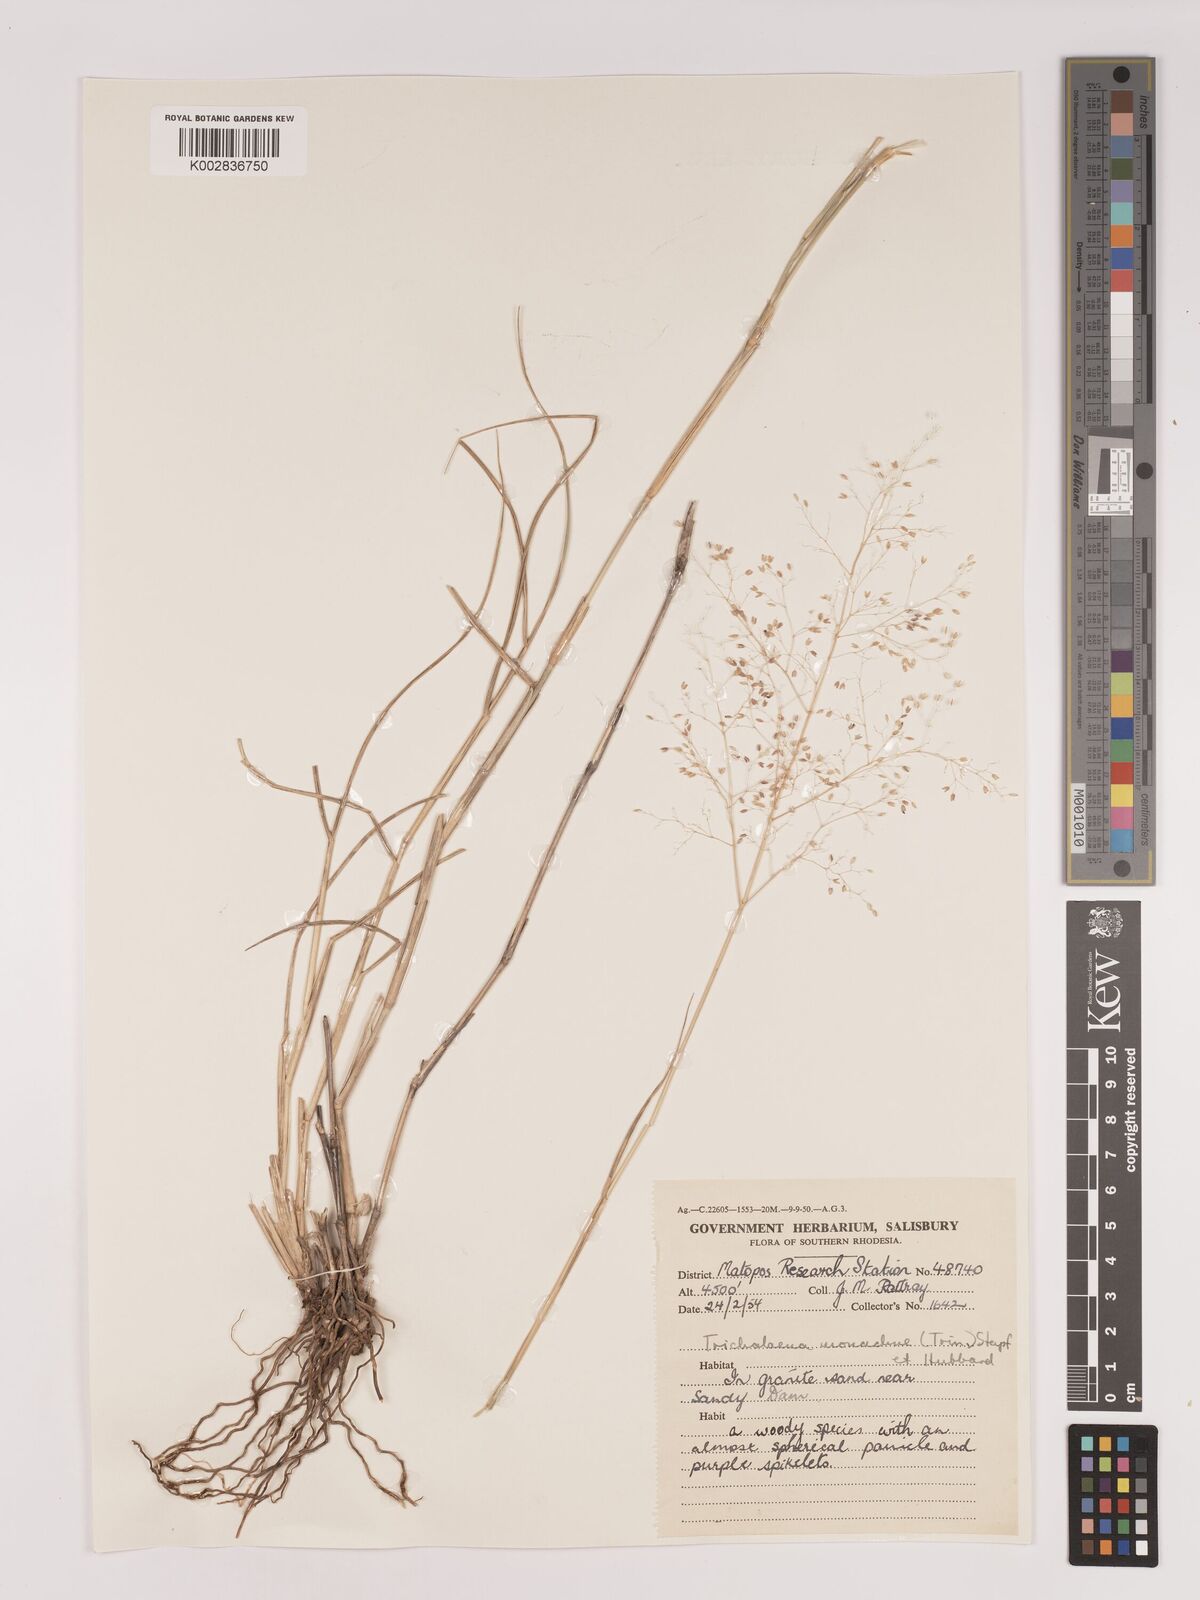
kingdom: Plantae
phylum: Tracheophyta
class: Liliopsida
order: Poales
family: Poaceae
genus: Tricholaena
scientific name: Tricholaena monachne
